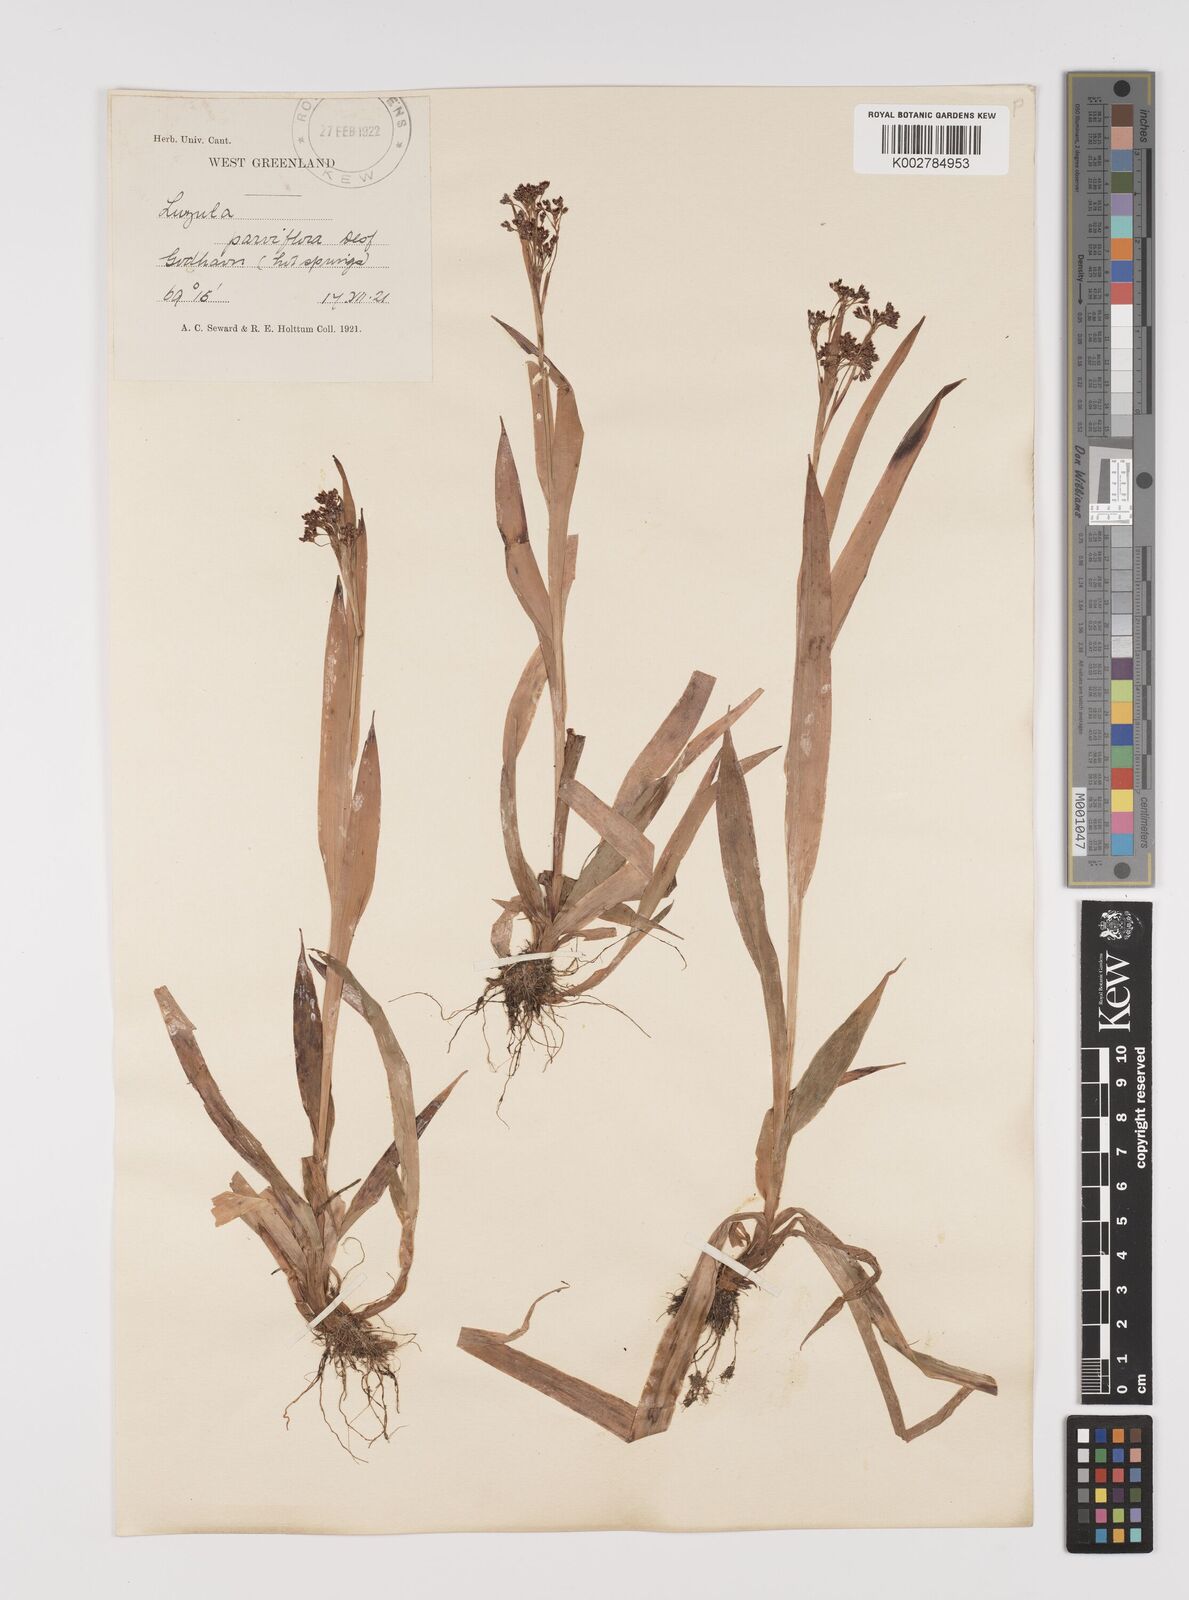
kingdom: Plantae
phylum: Tracheophyta
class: Liliopsida
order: Poales
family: Juncaceae
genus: Luzula
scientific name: Luzula parviflora
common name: Millet woodrush
